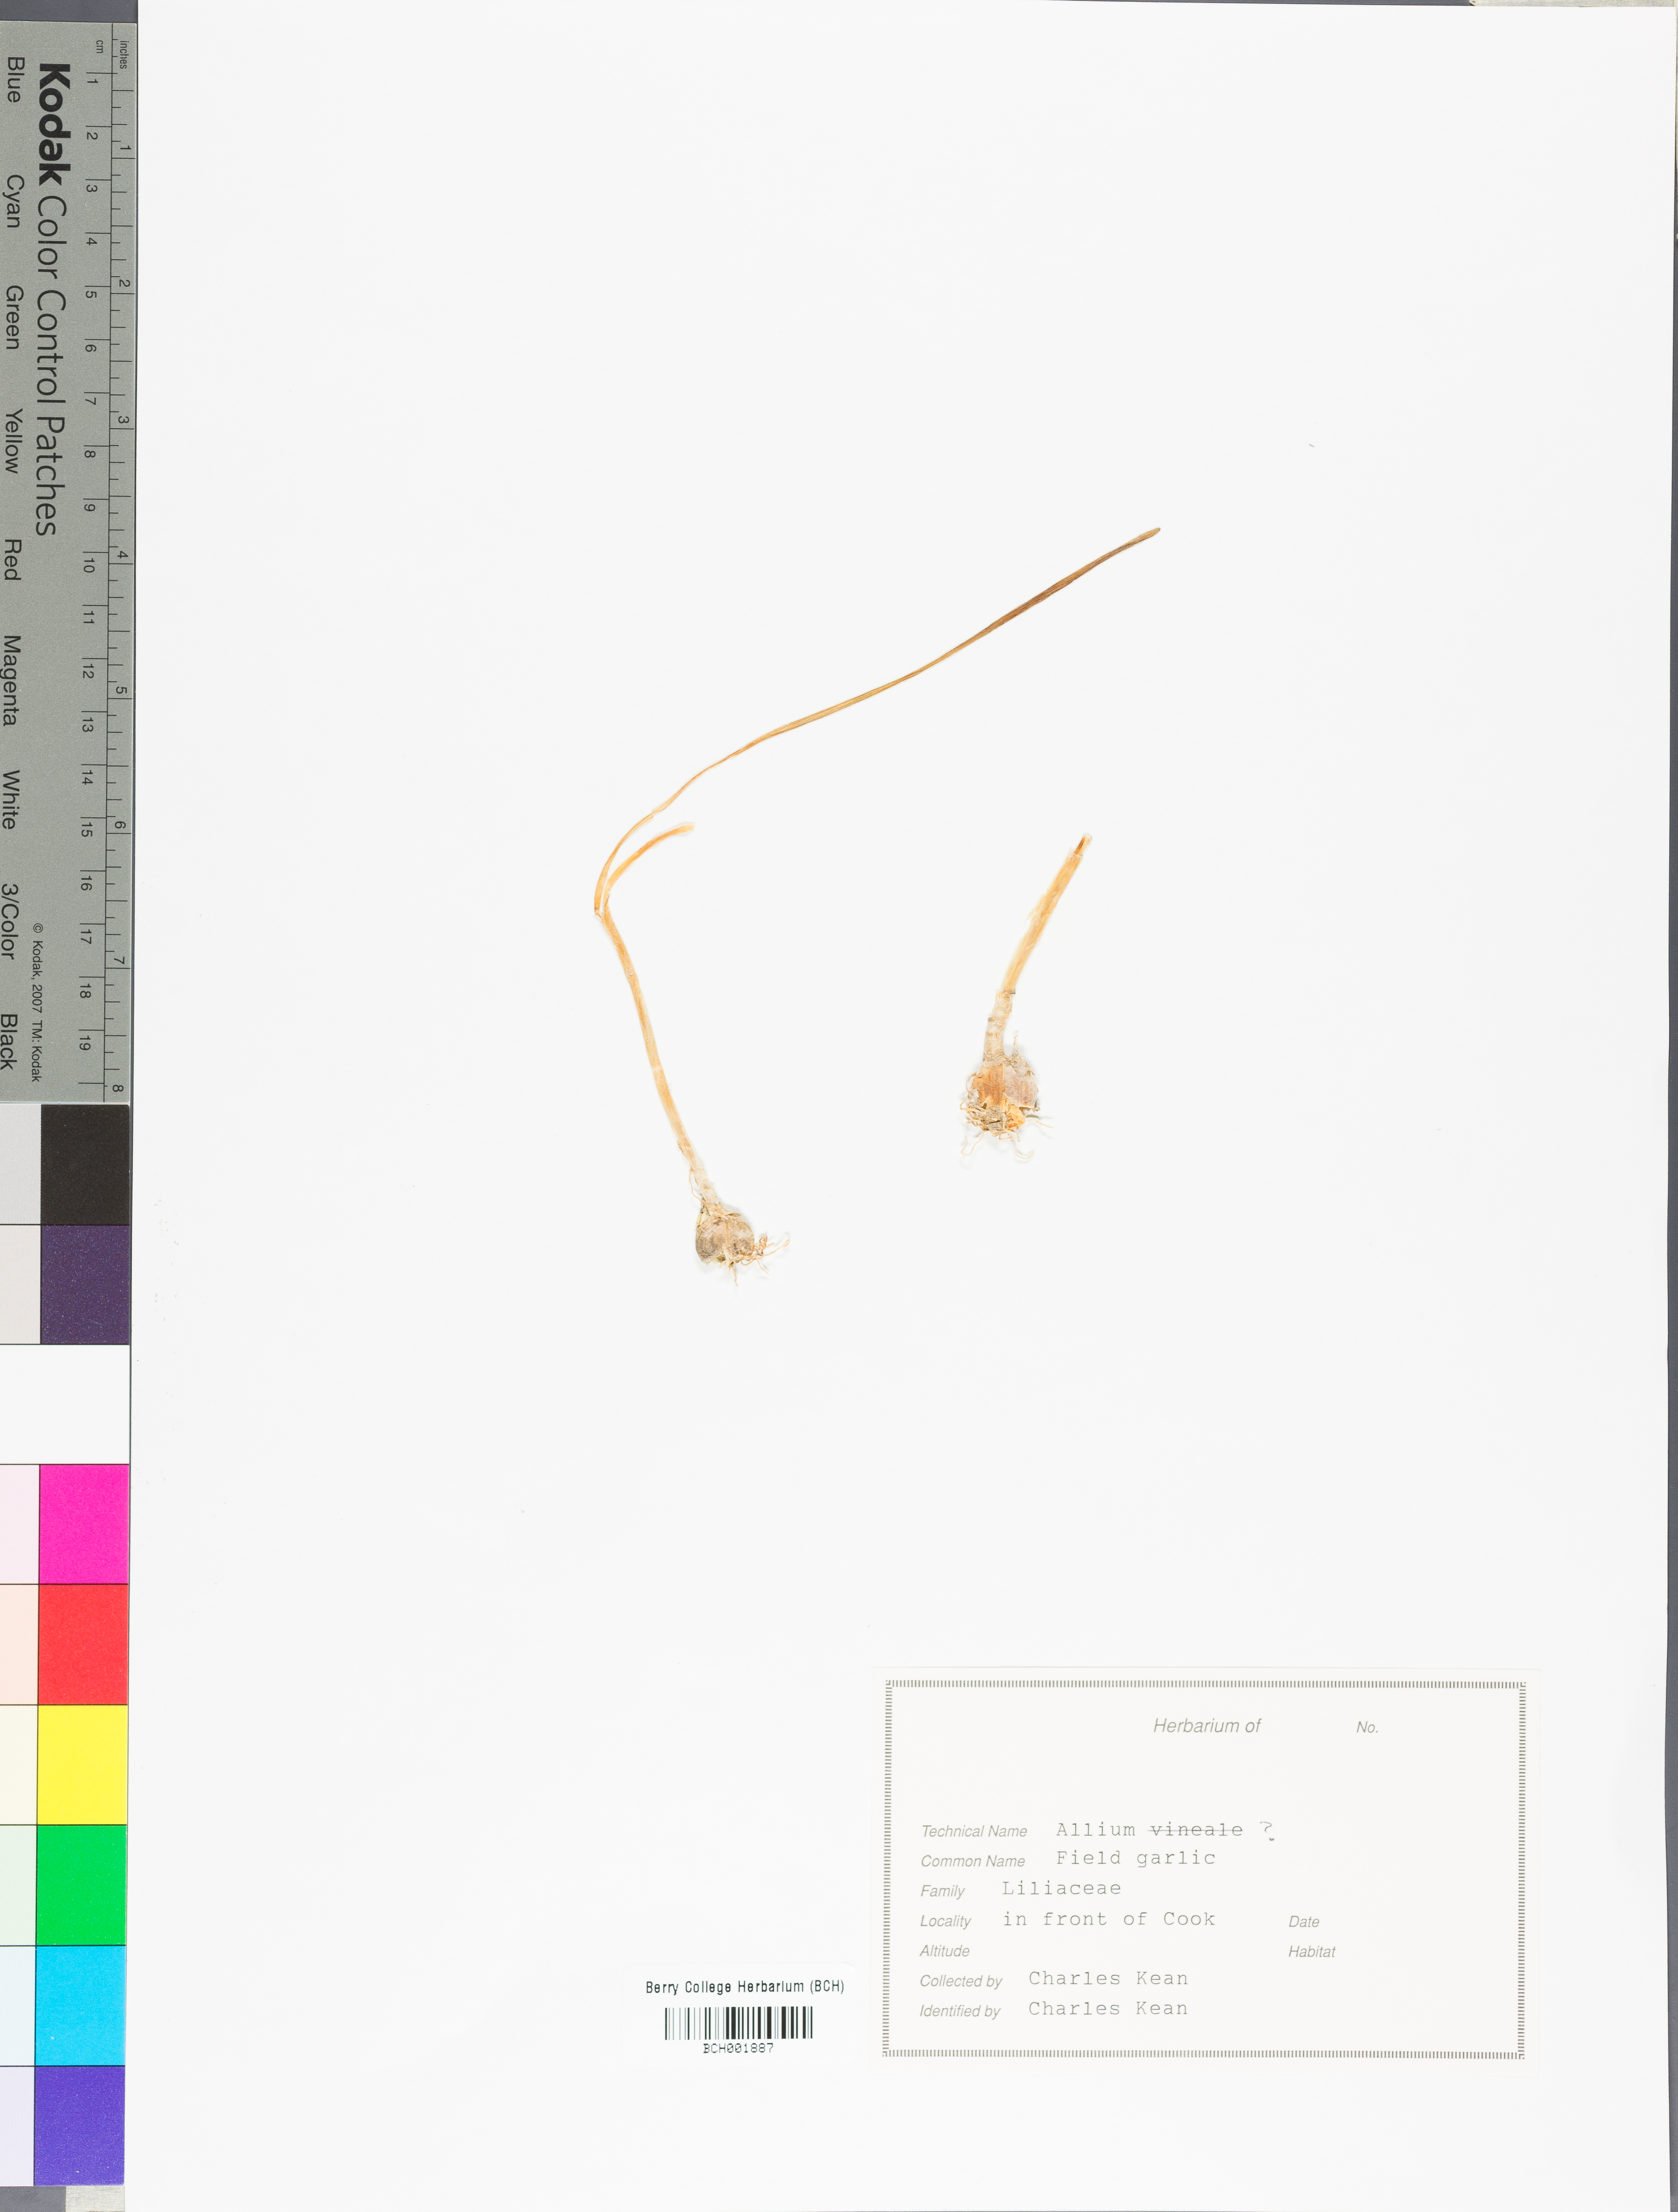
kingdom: Plantae
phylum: Tracheophyta
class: Liliopsida
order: Asparagales
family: Amaryllidaceae
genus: Allium
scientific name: Allium vineale
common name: Crow garlic
